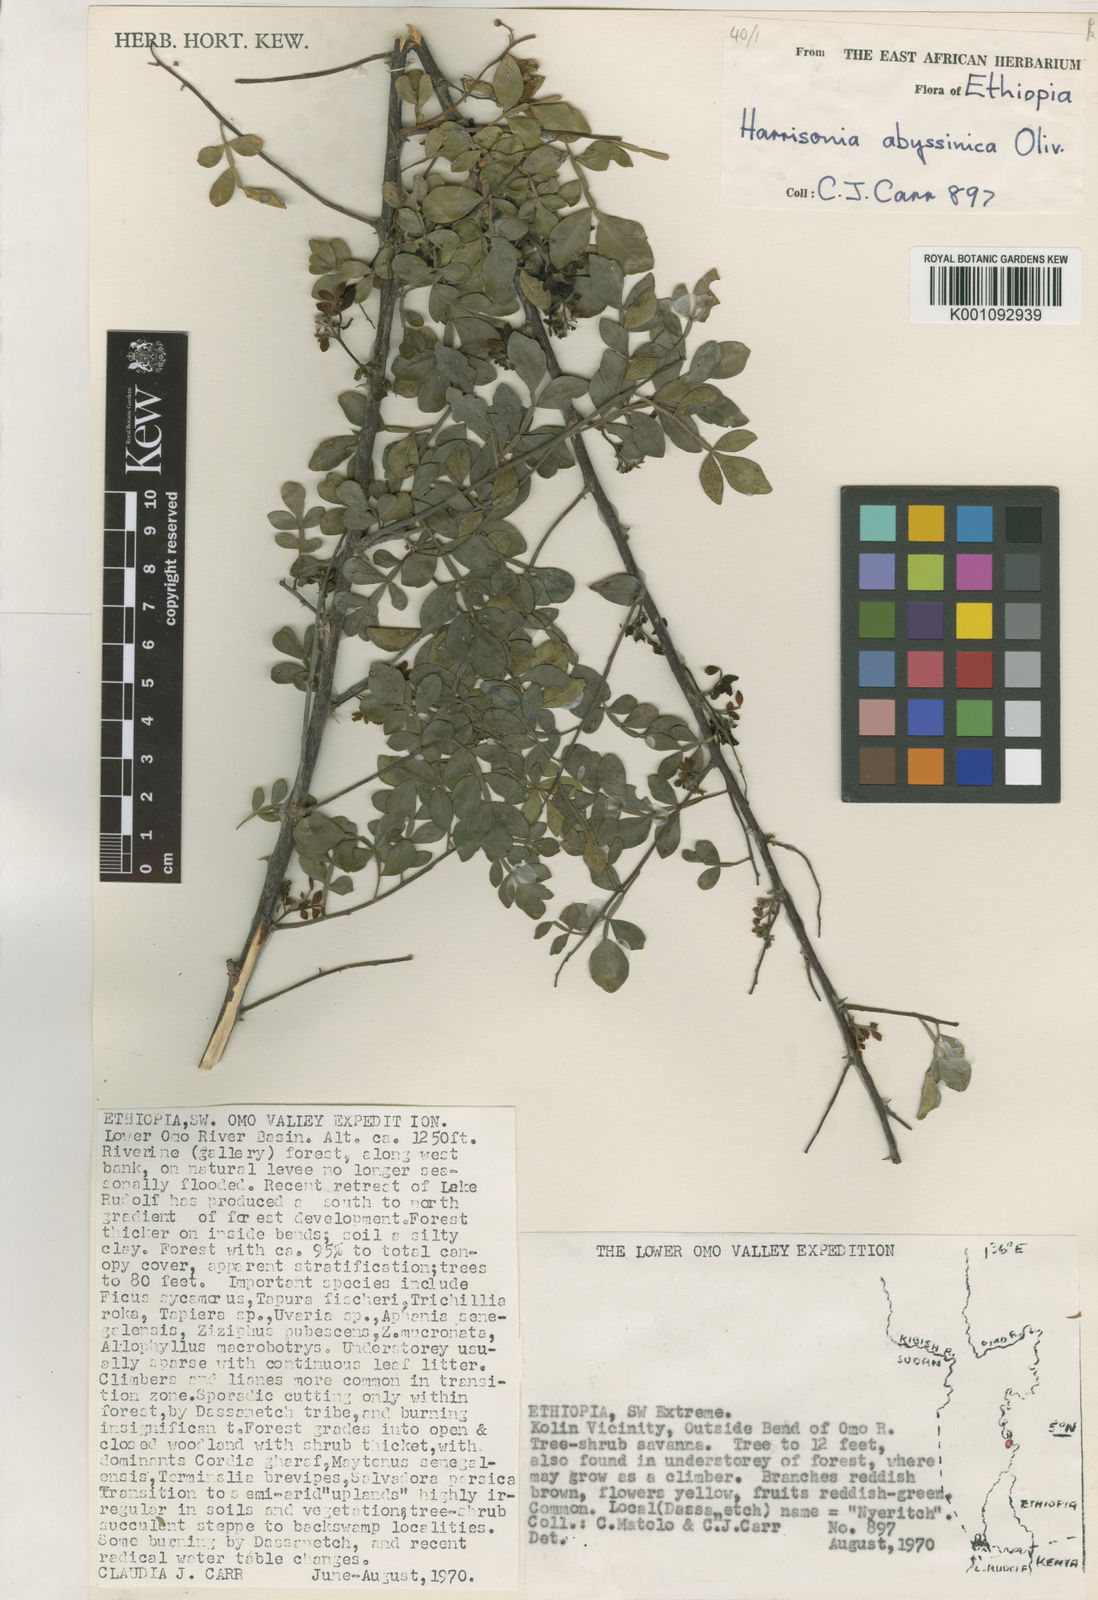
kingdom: Plantae
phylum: Tracheophyta
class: Magnoliopsida
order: Sapindales
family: Rutaceae
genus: Harrisonia
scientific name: Harrisonia abyssinica
